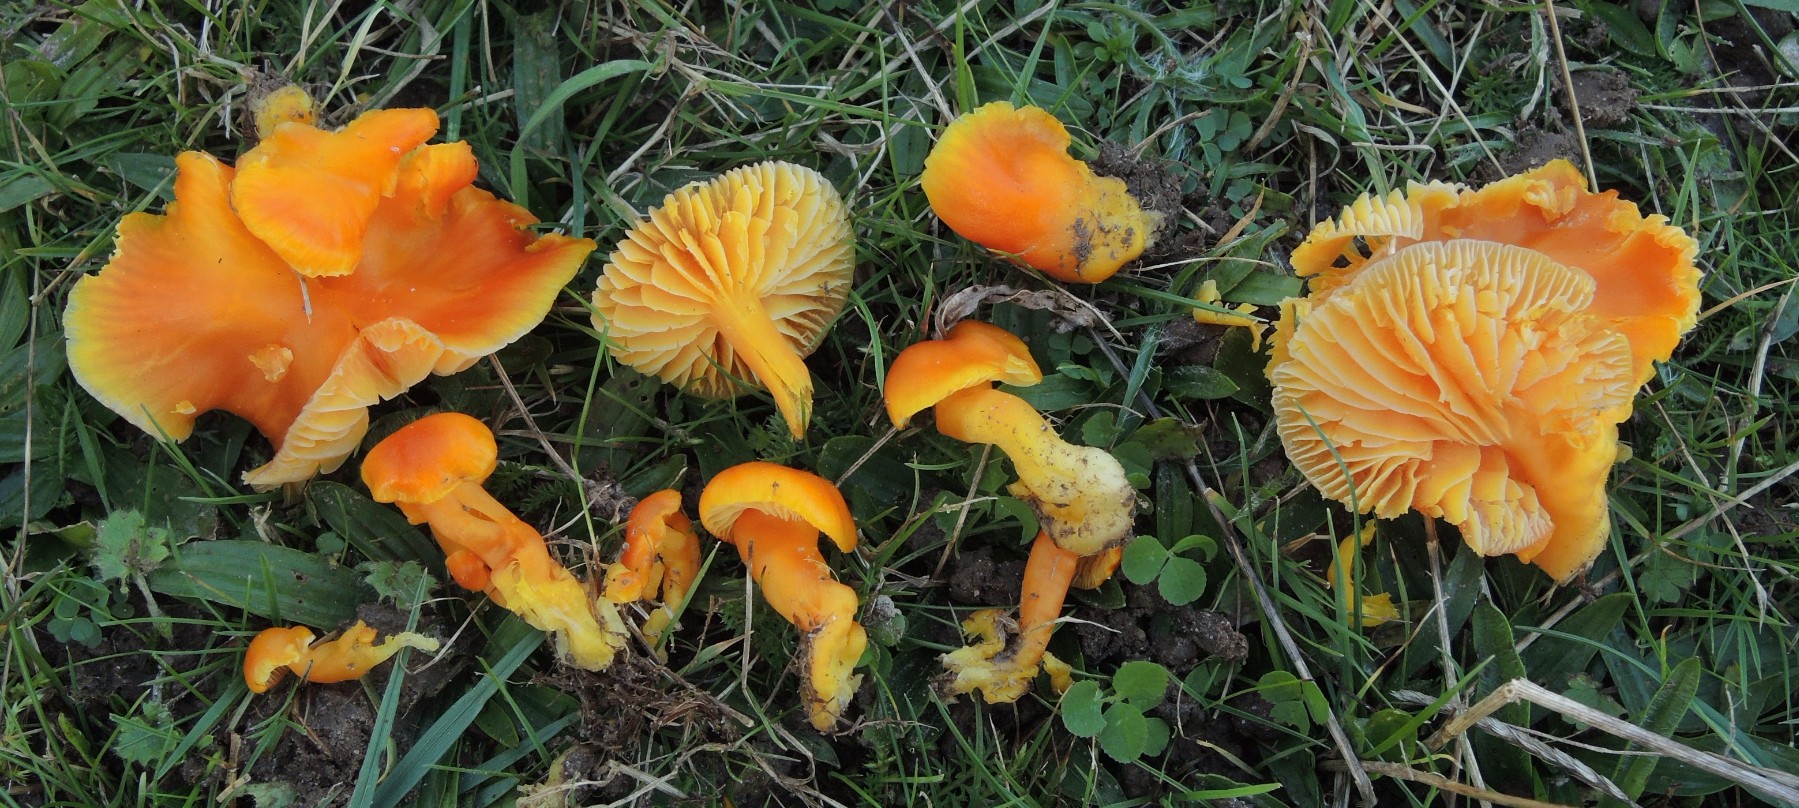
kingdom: Fungi
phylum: Basidiomycota
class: Agaricomycetes
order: Agaricales
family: Hygrophoraceae
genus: Hygrocybe
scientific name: Hygrocybe ceracea
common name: voksgul vokshat
